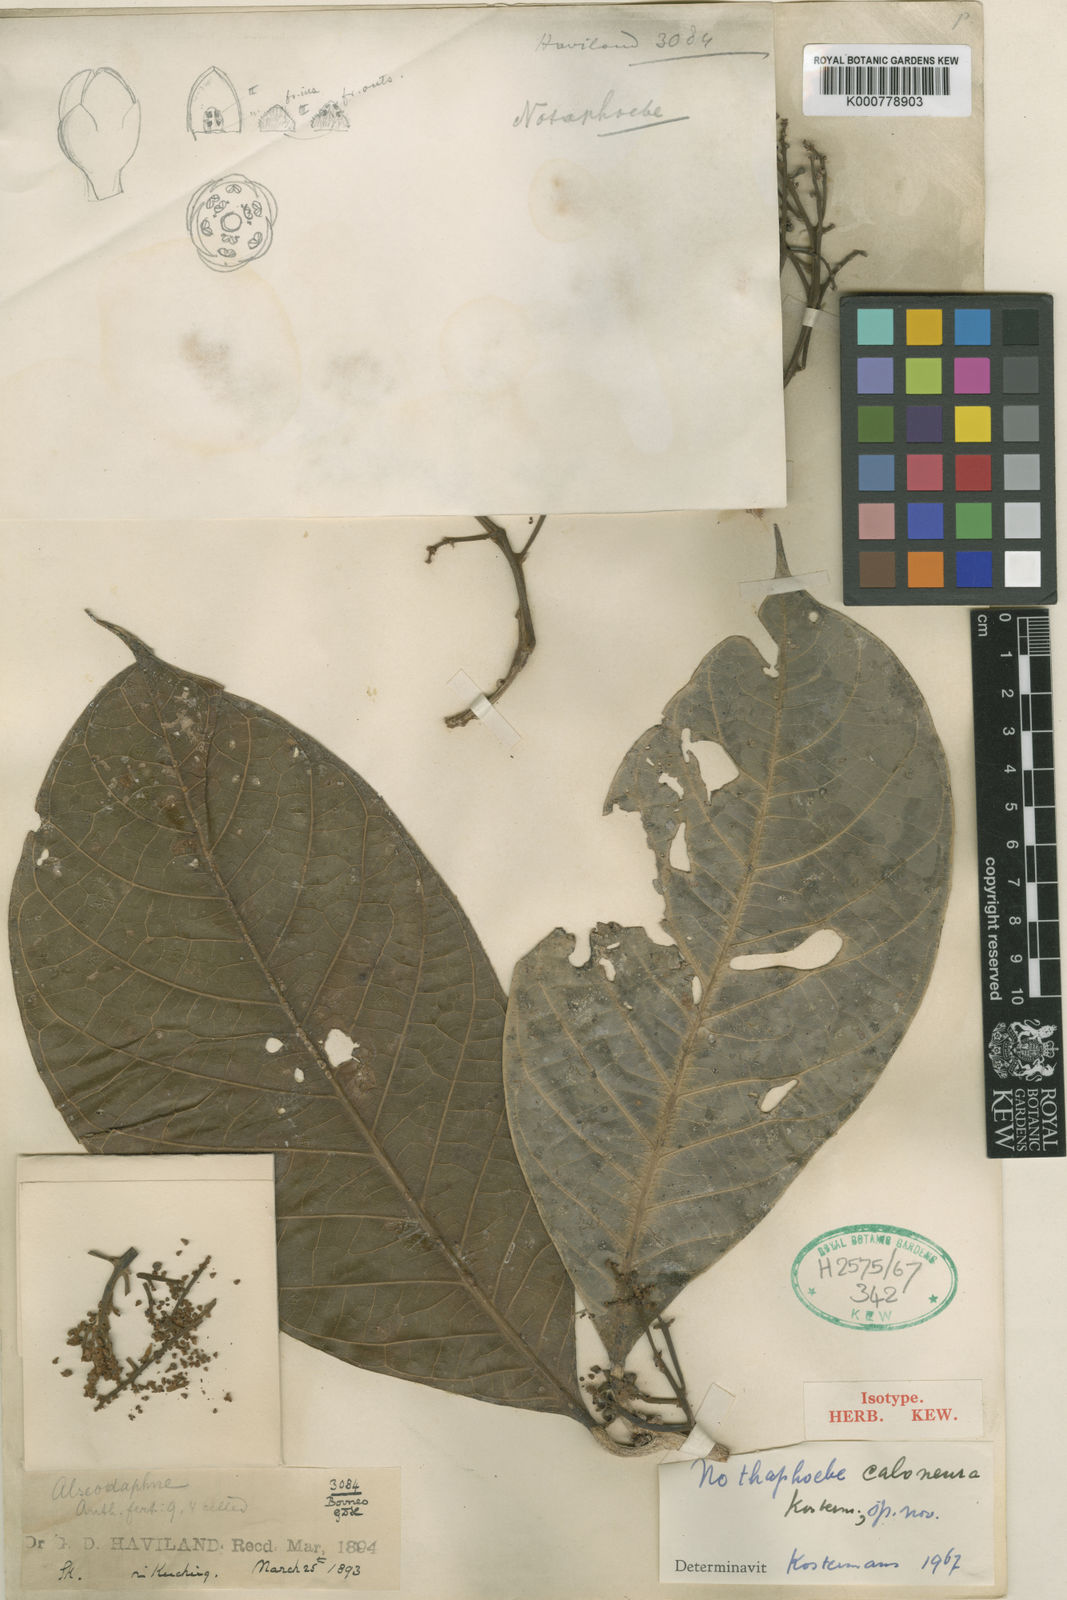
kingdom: Plantae
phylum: Tracheophyta
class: Magnoliopsida
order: Laurales
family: Lauraceae
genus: Nothaphoebe
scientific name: Nothaphoebe
